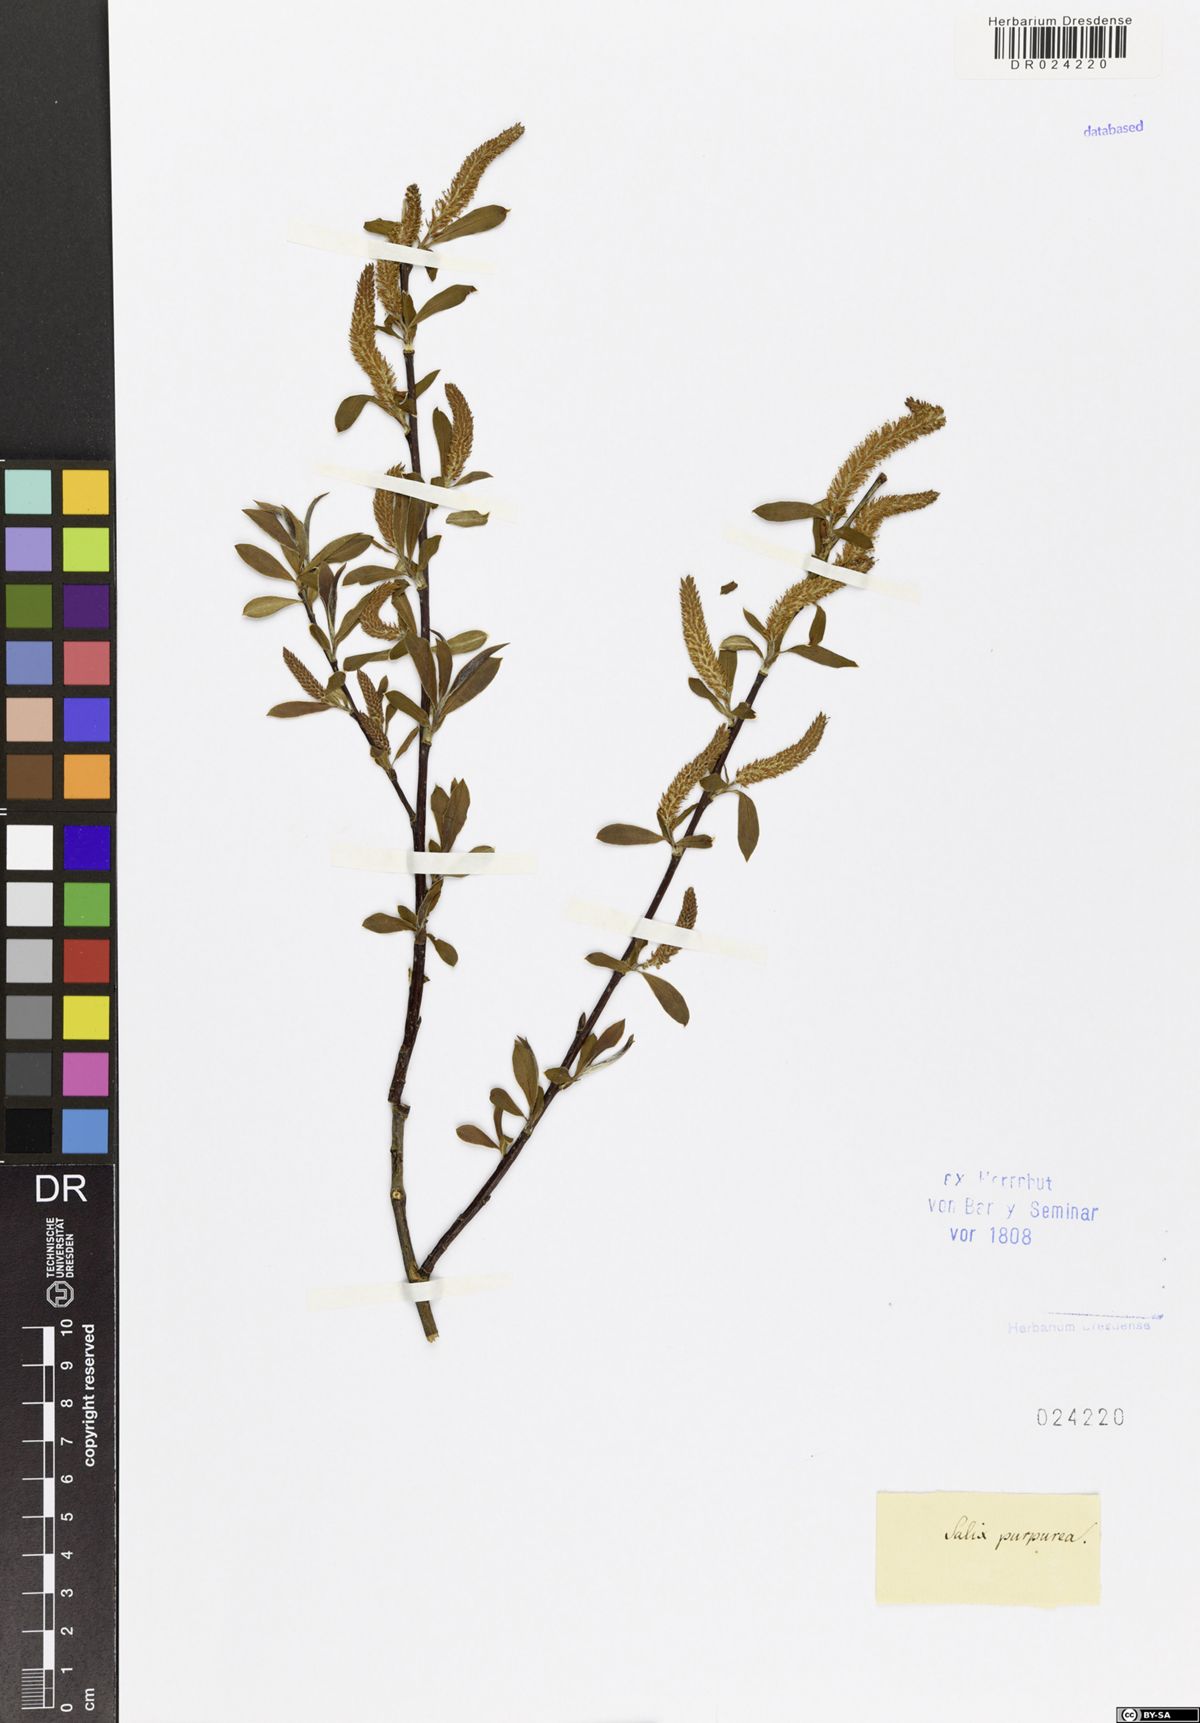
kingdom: Plantae
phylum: Tracheophyta
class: Magnoliopsida
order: Malpighiales
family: Salicaceae
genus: Salix
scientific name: Salix purpurea
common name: Purple willow
